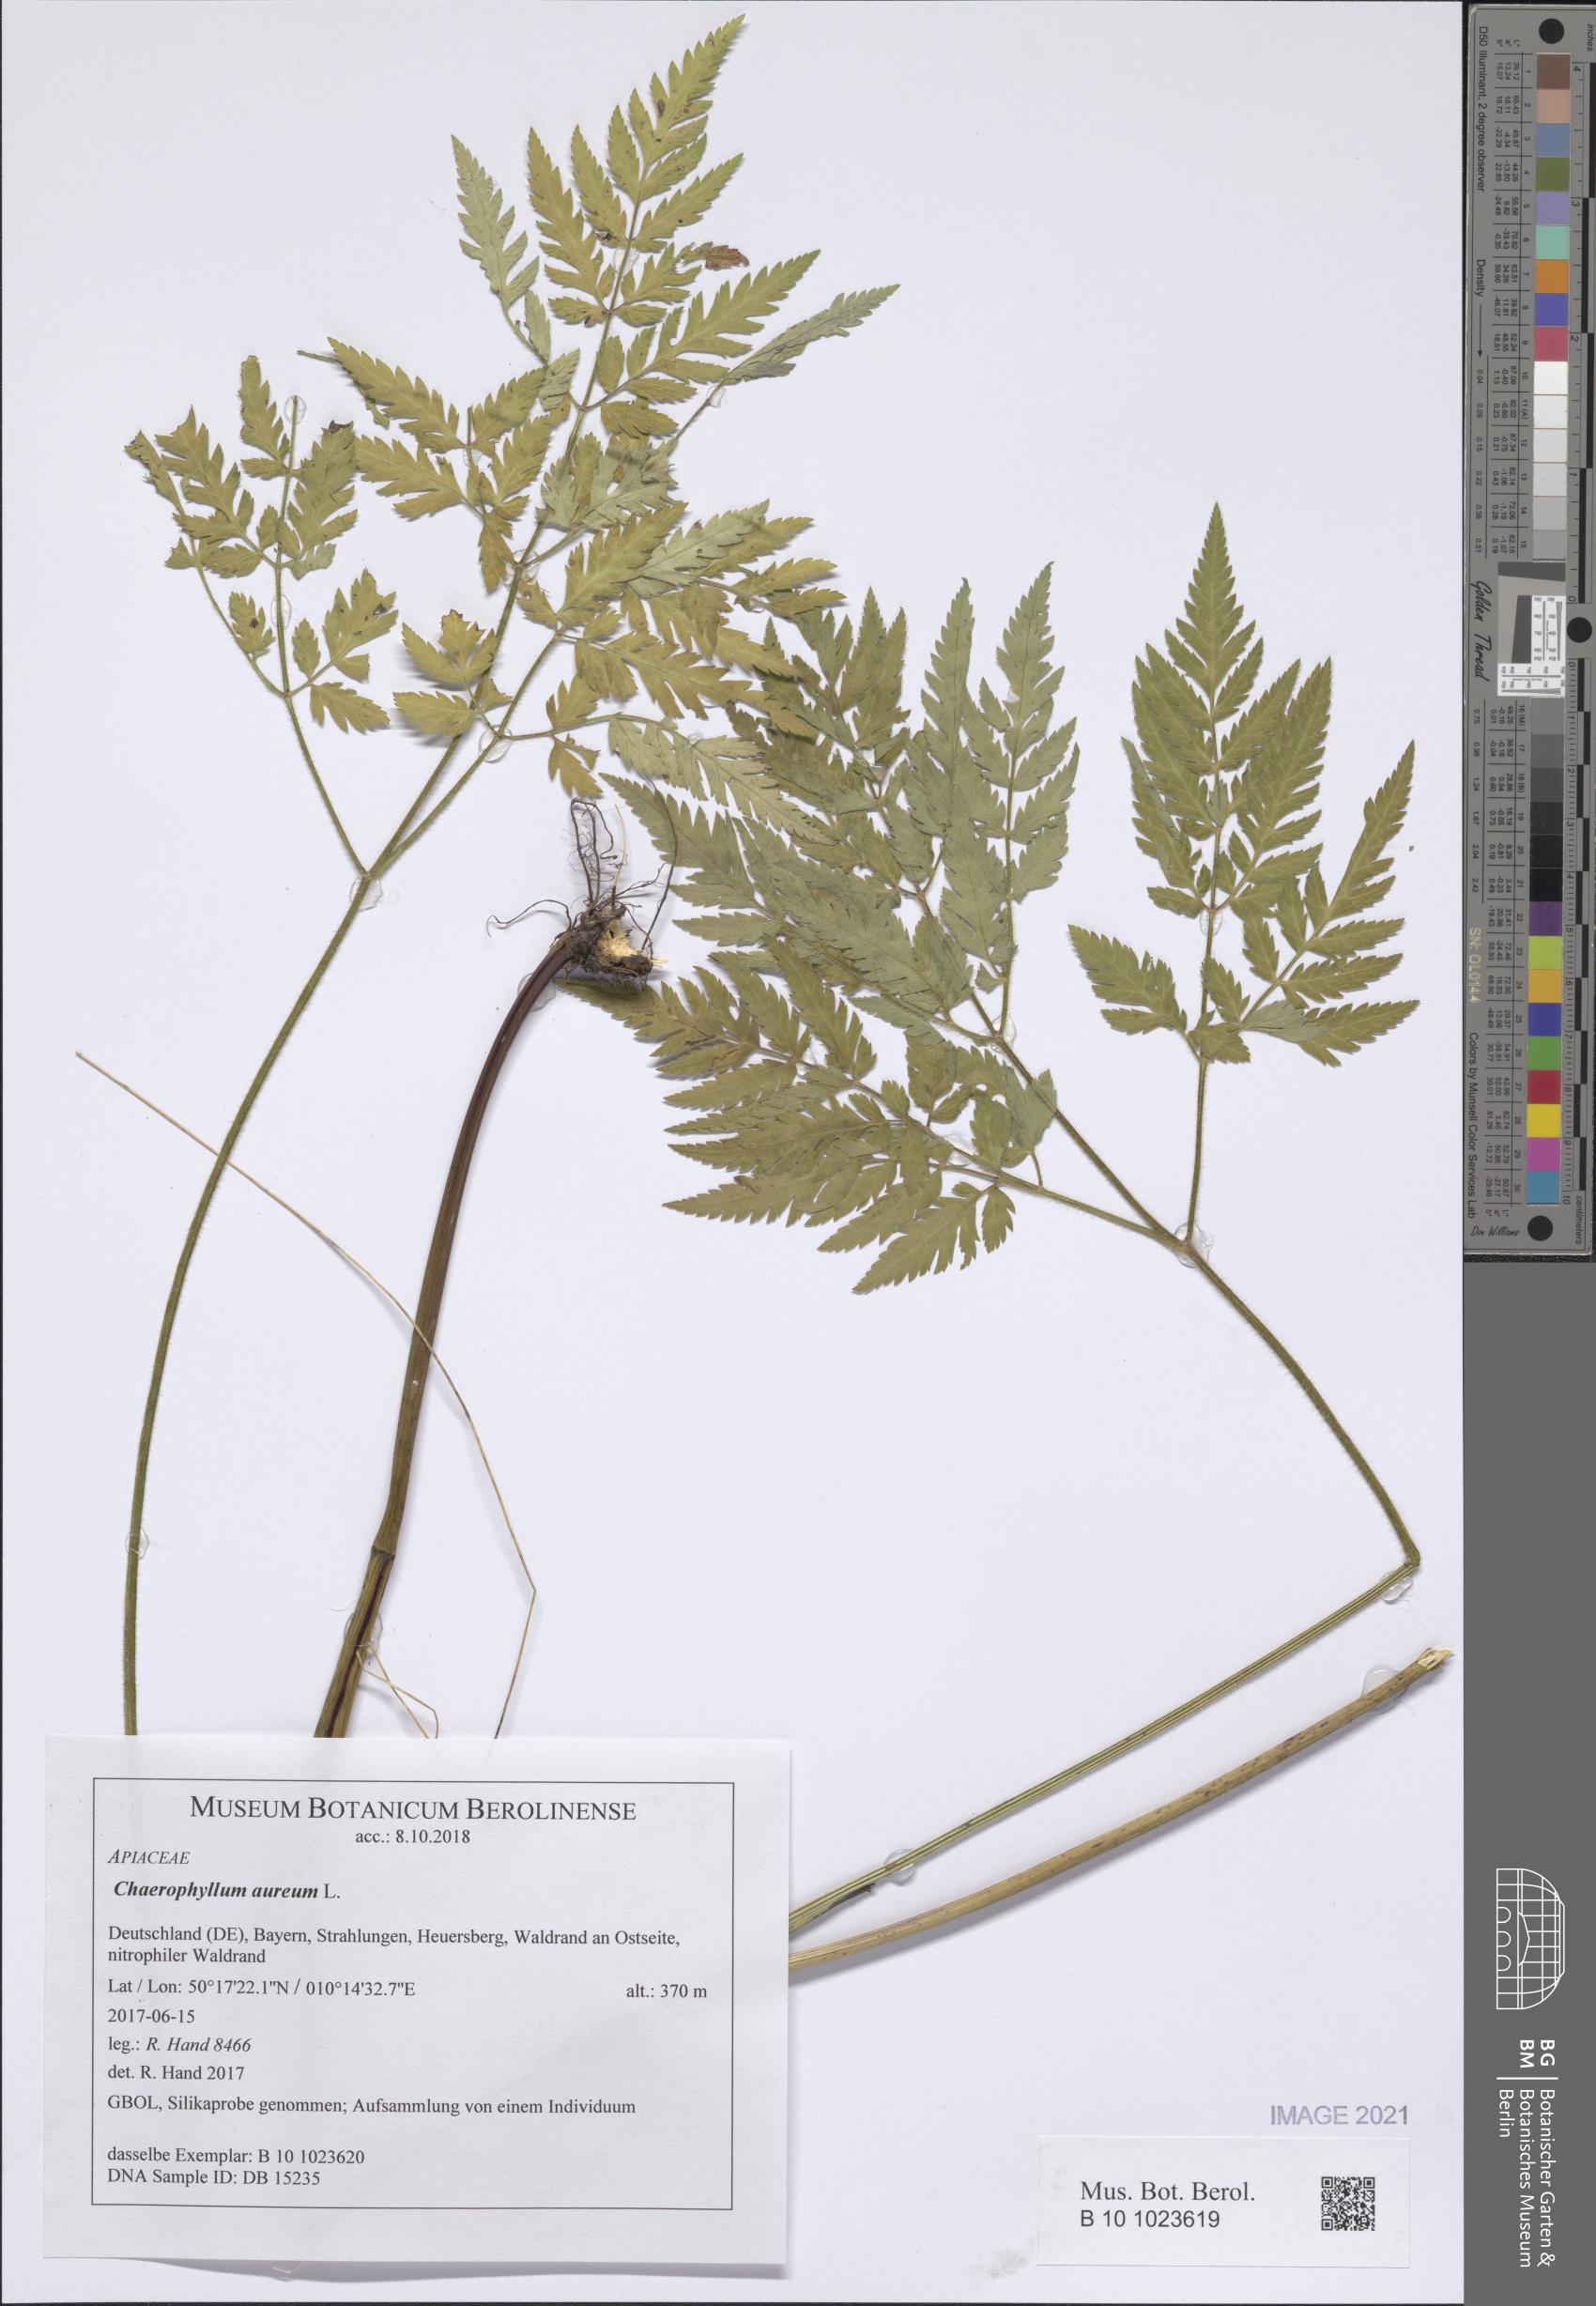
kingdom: Plantae
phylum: Tracheophyta
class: Magnoliopsida
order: Apiales
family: Apiaceae
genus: Chaerophyllum
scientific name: Chaerophyllum aureum
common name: Golden chervil
